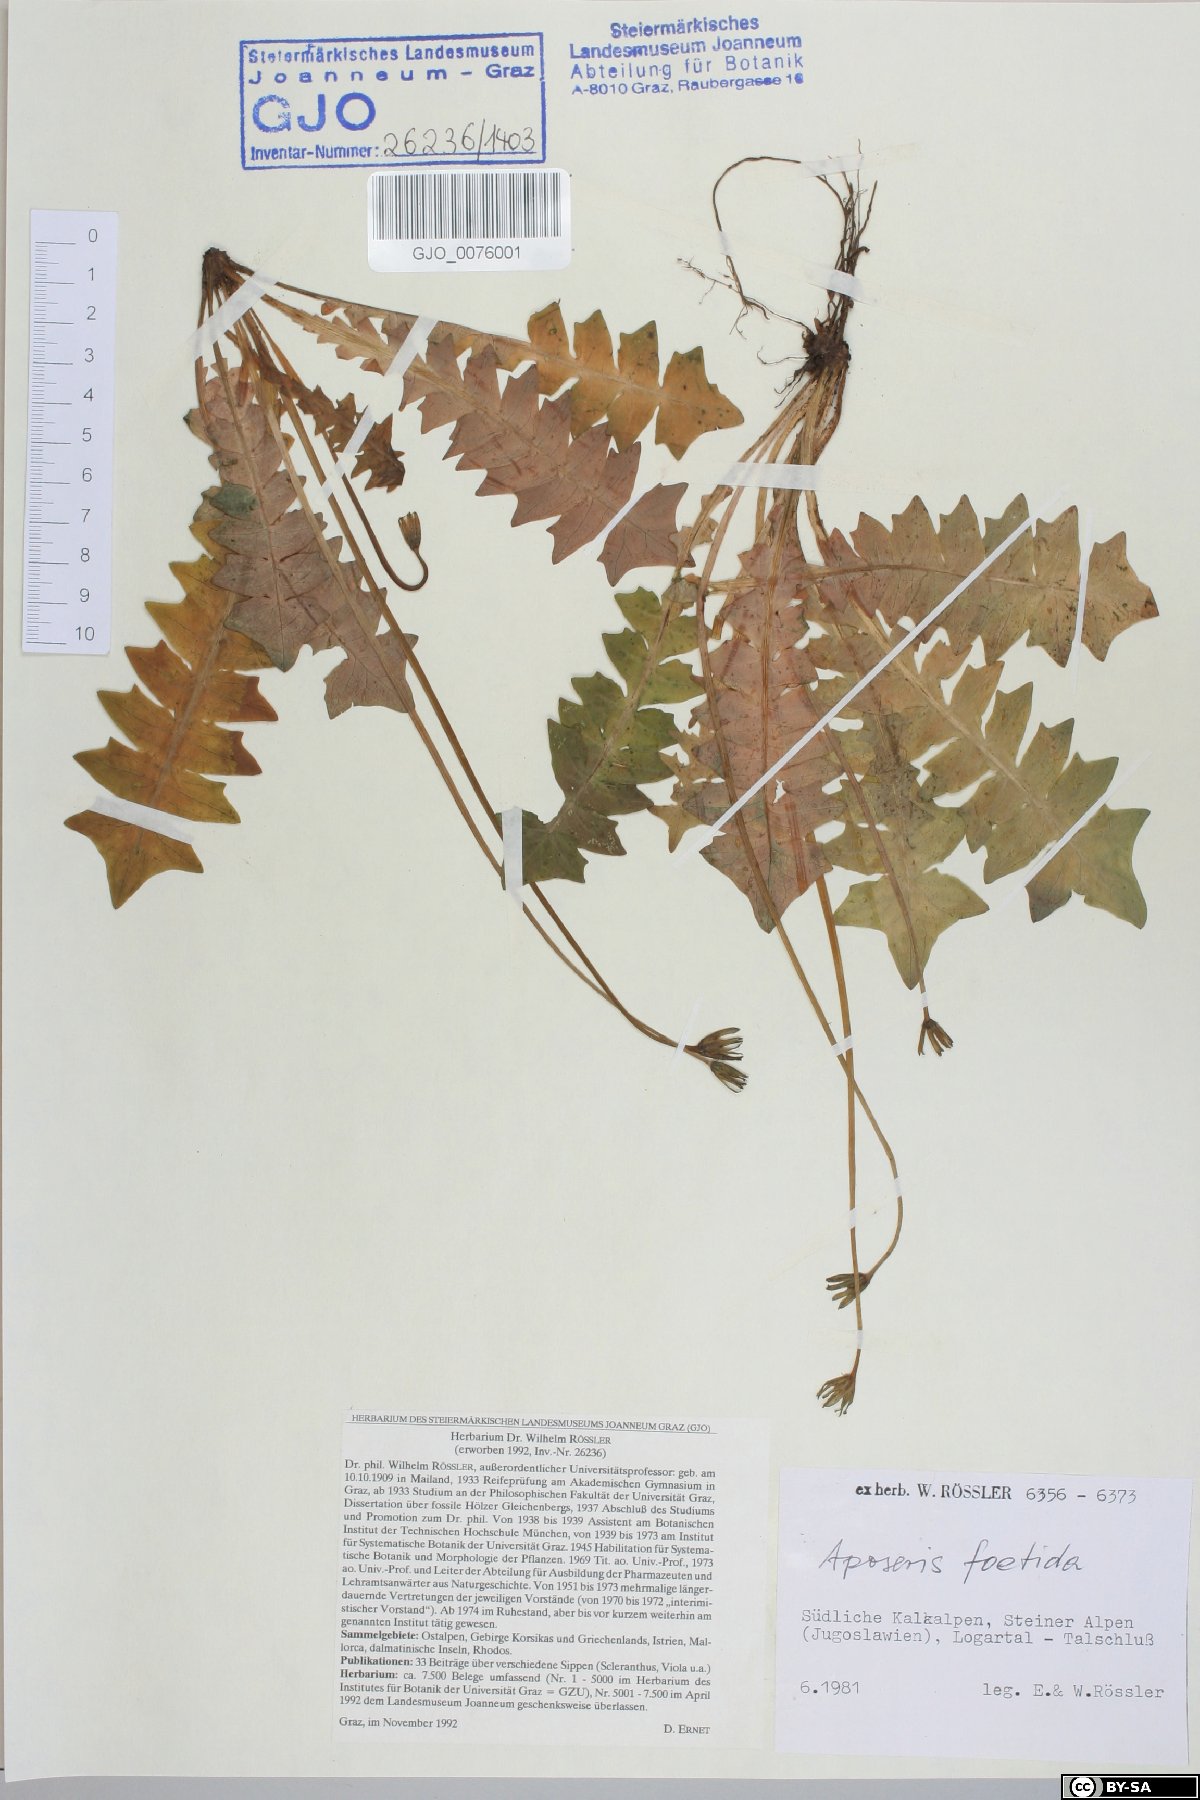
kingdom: Plantae
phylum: Tracheophyta
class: Magnoliopsida
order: Asterales
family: Asteraceae
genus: Aposeris
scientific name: Aposeris foetida
